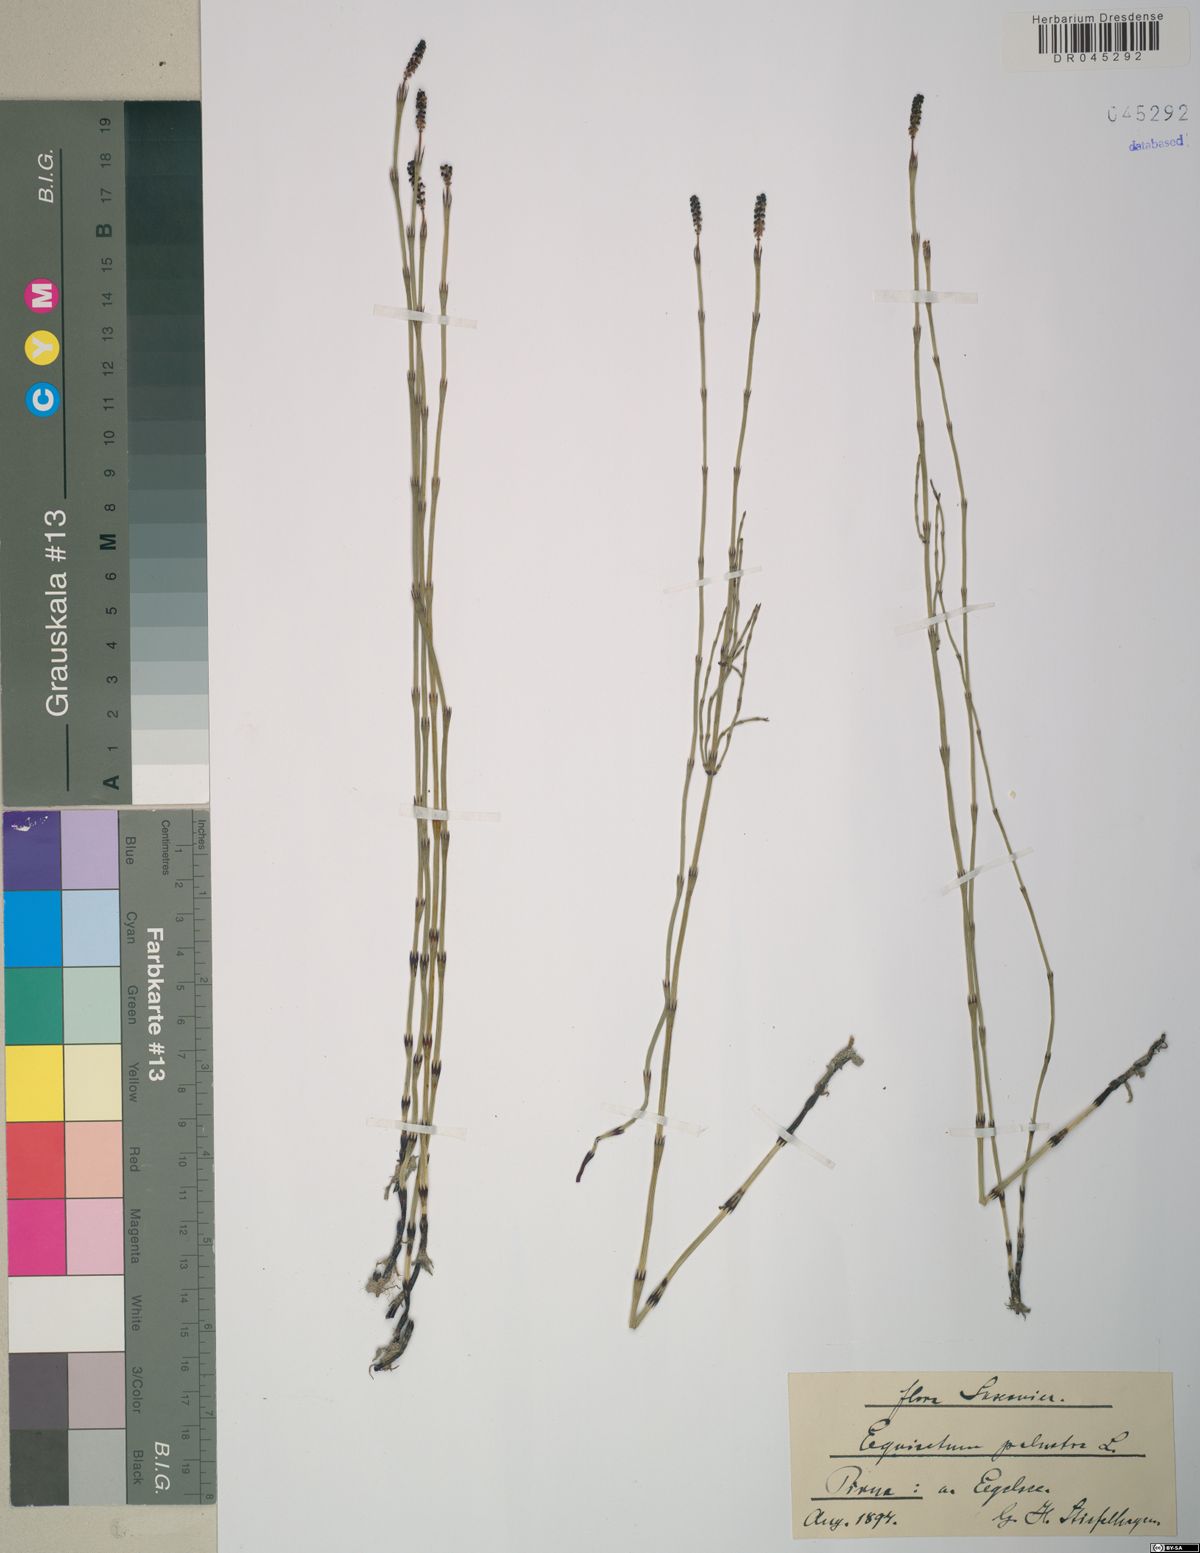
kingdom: Plantae
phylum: Tracheophyta
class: Polypodiopsida
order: Equisetales
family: Equisetaceae
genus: Equisetum
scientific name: Equisetum palustre
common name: Marsh horsetail
